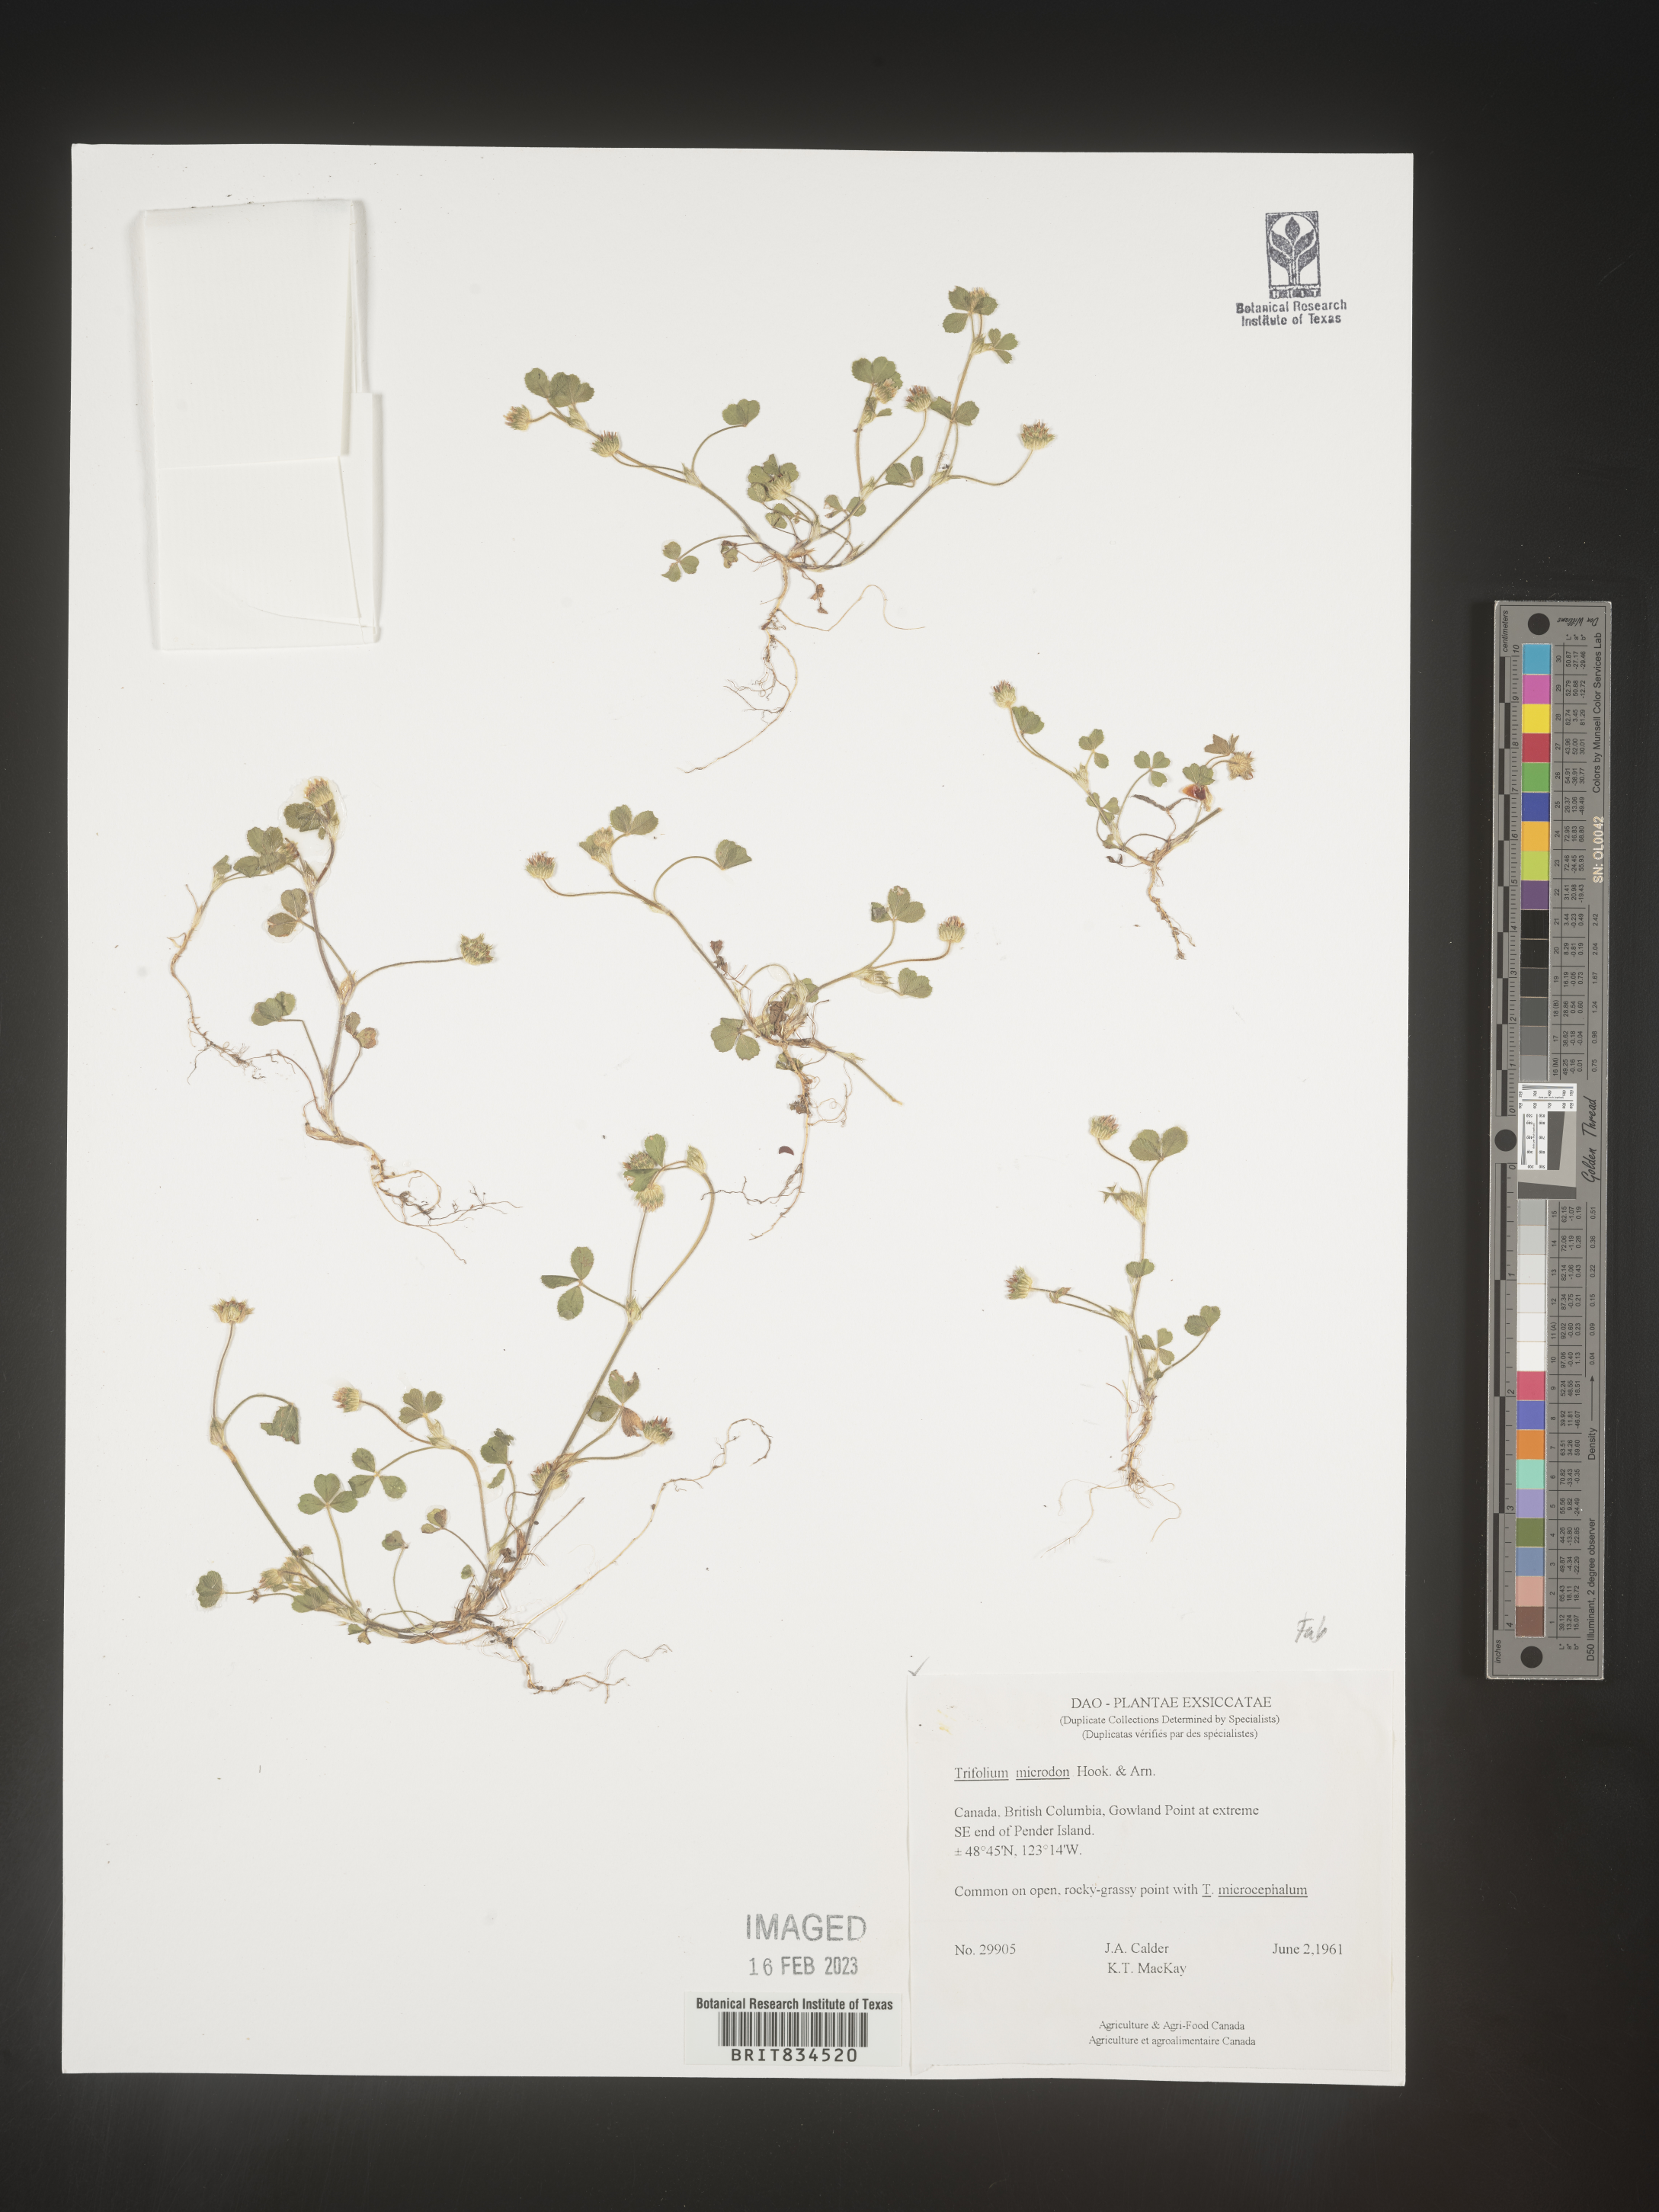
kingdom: Plantae
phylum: Tracheophyta
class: Magnoliopsida
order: Fabales
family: Fabaceae
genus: Trifolium
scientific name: Trifolium
